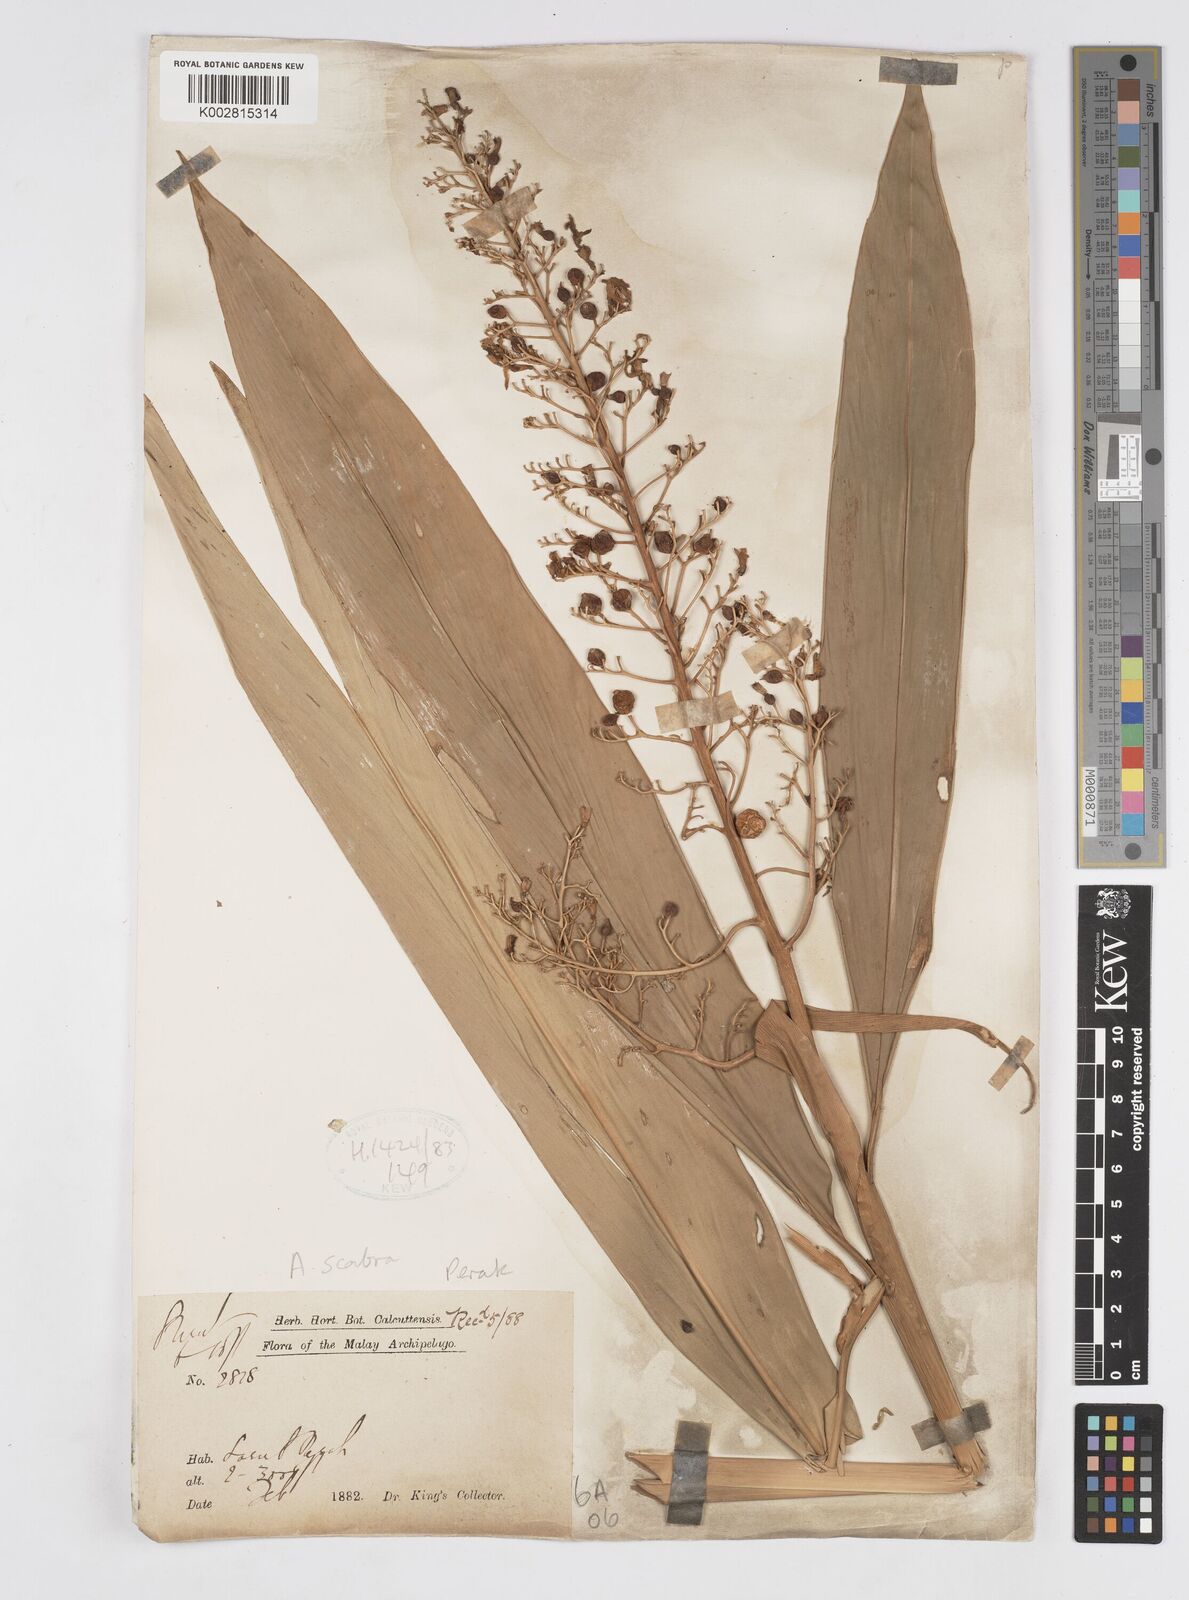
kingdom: Plantae
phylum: Tracheophyta
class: Liliopsida
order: Zingiberales
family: Zingiberaceae
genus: Alpinia
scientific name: Alpinia scabra
